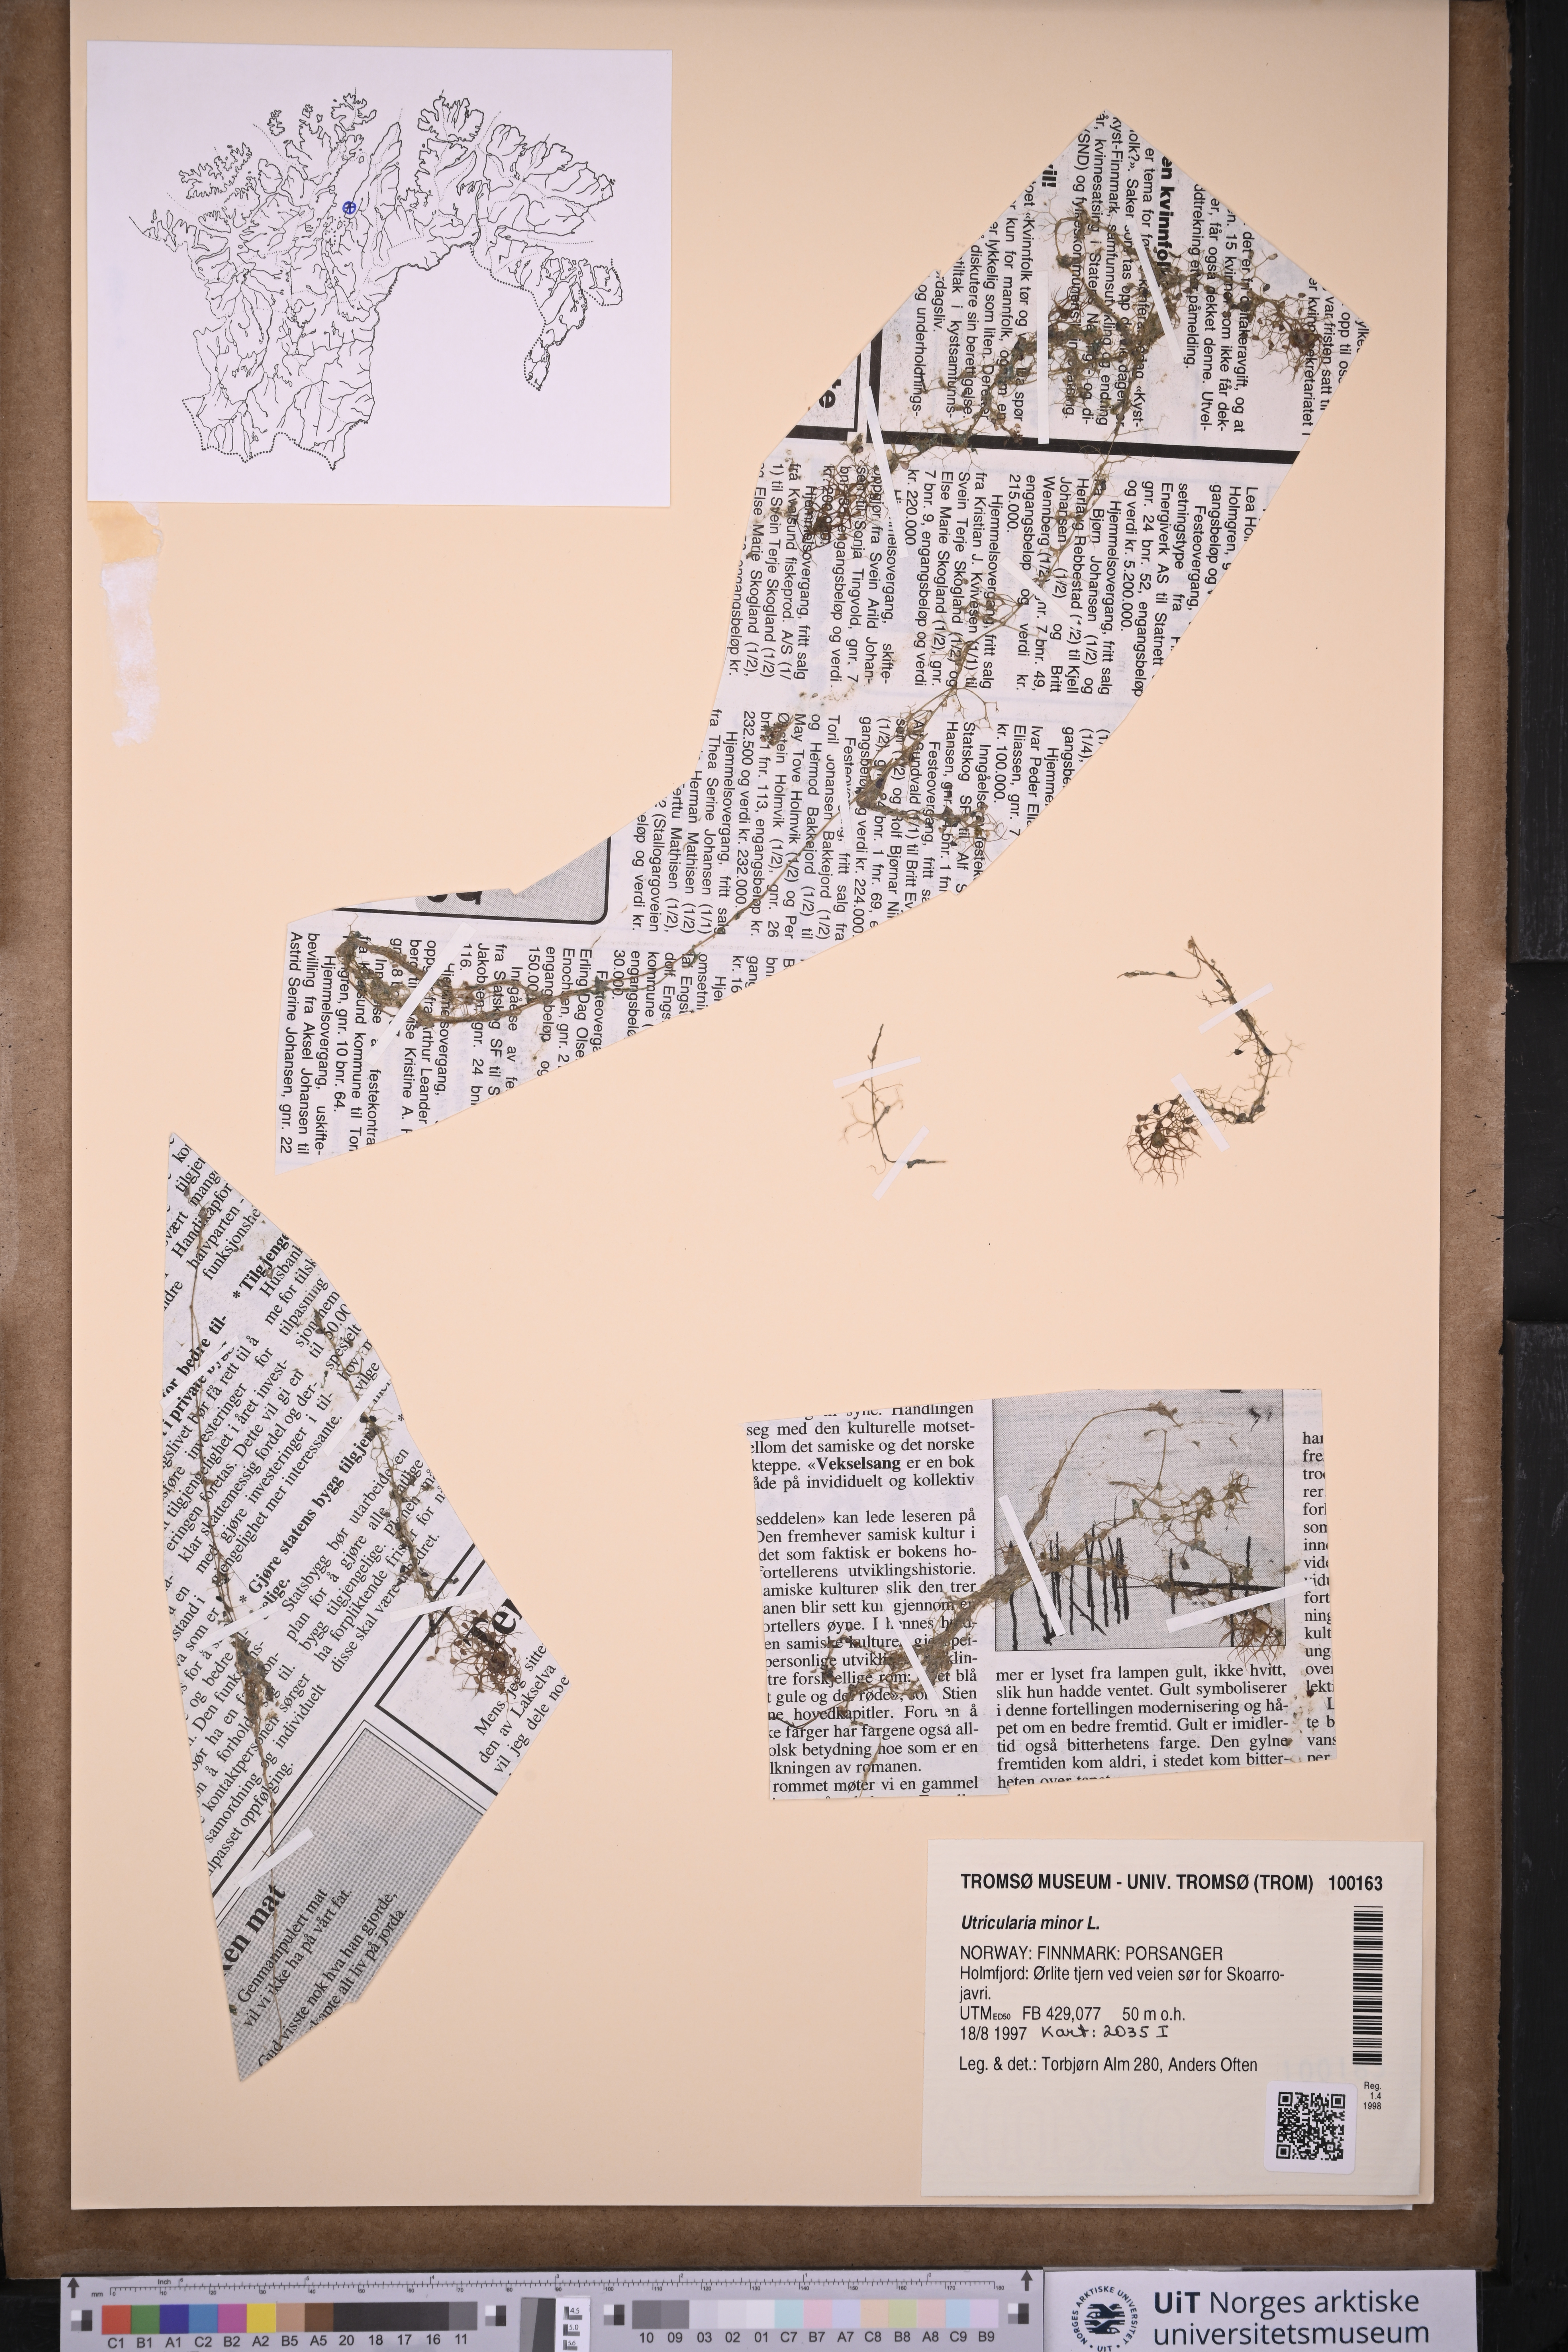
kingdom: Plantae
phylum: Tracheophyta
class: Magnoliopsida
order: Lamiales
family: Lentibulariaceae
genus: Utricularia
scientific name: Utricularia minor
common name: Lesser bladderwort
